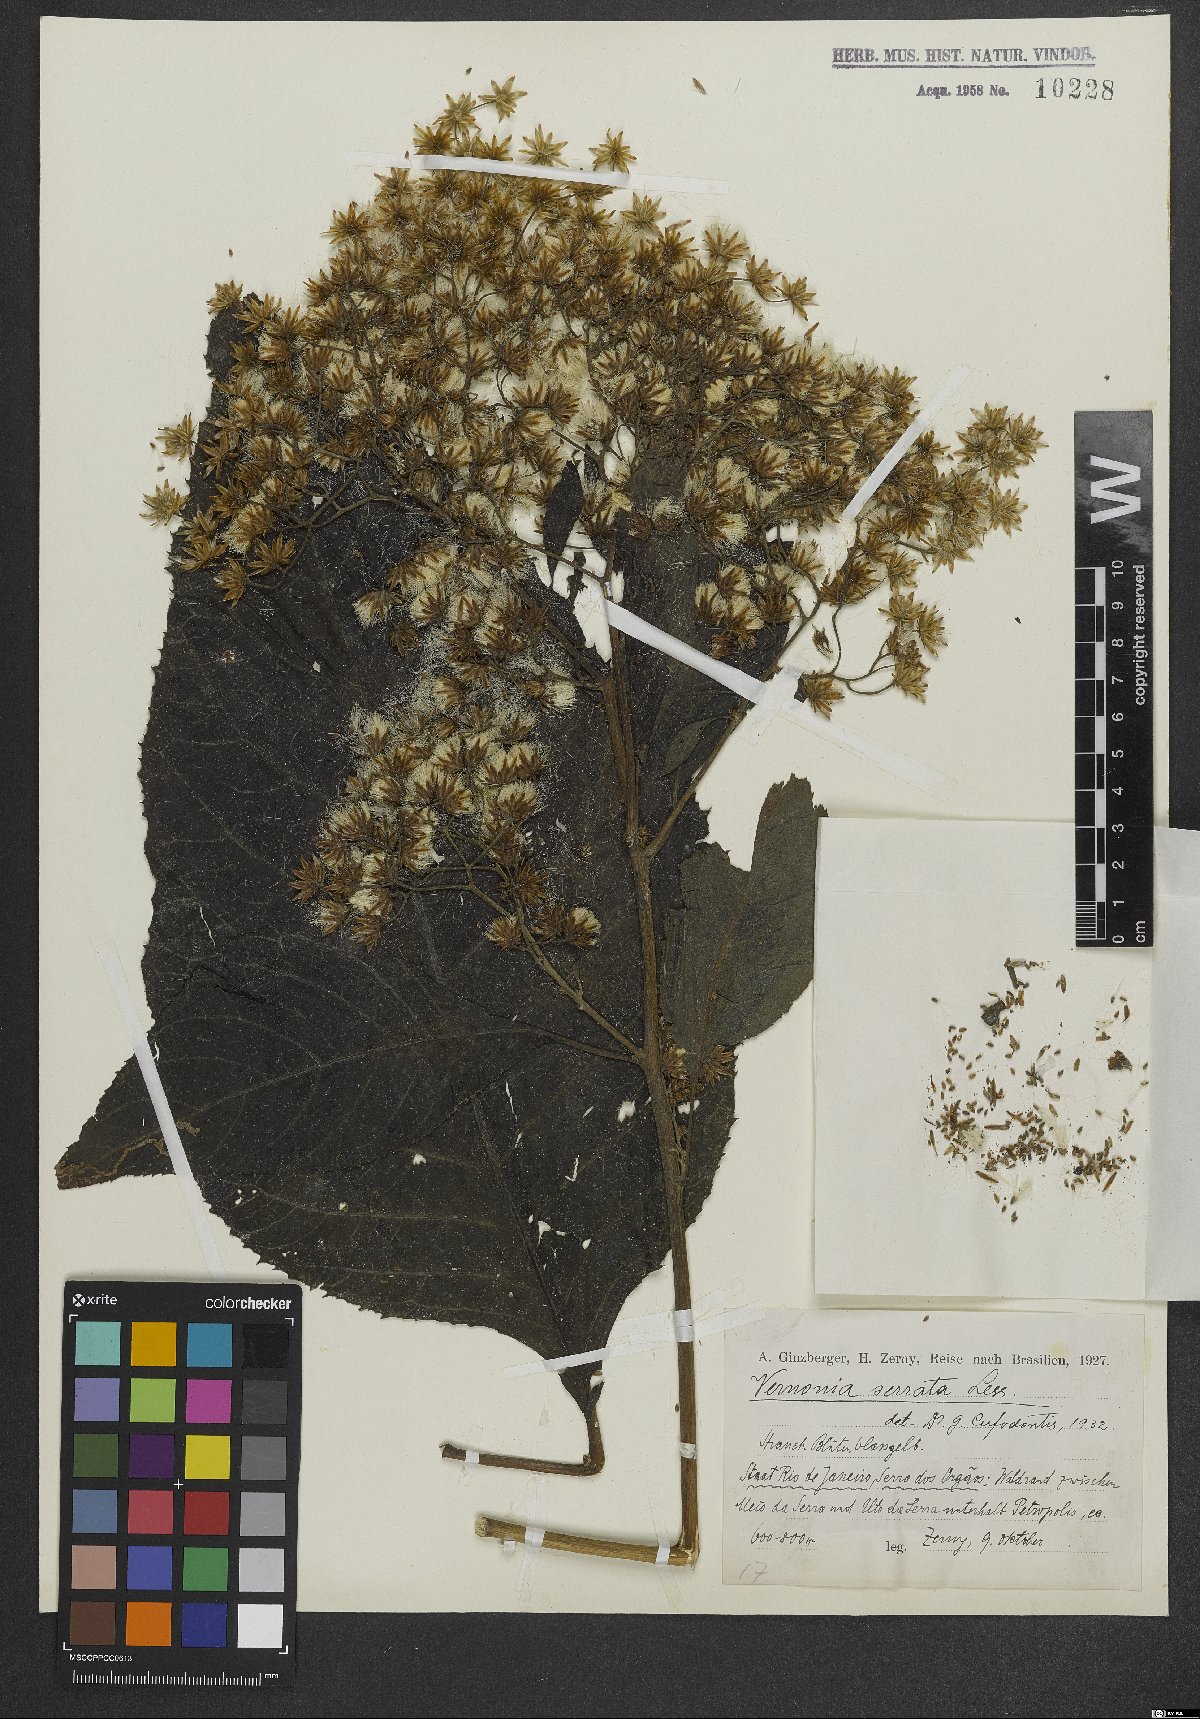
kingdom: Plantae
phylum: Tracheophyta
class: Magnoliopsida
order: Asterales
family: Asteraceae
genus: Dasyanthina
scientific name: Dasyanthina serrata
